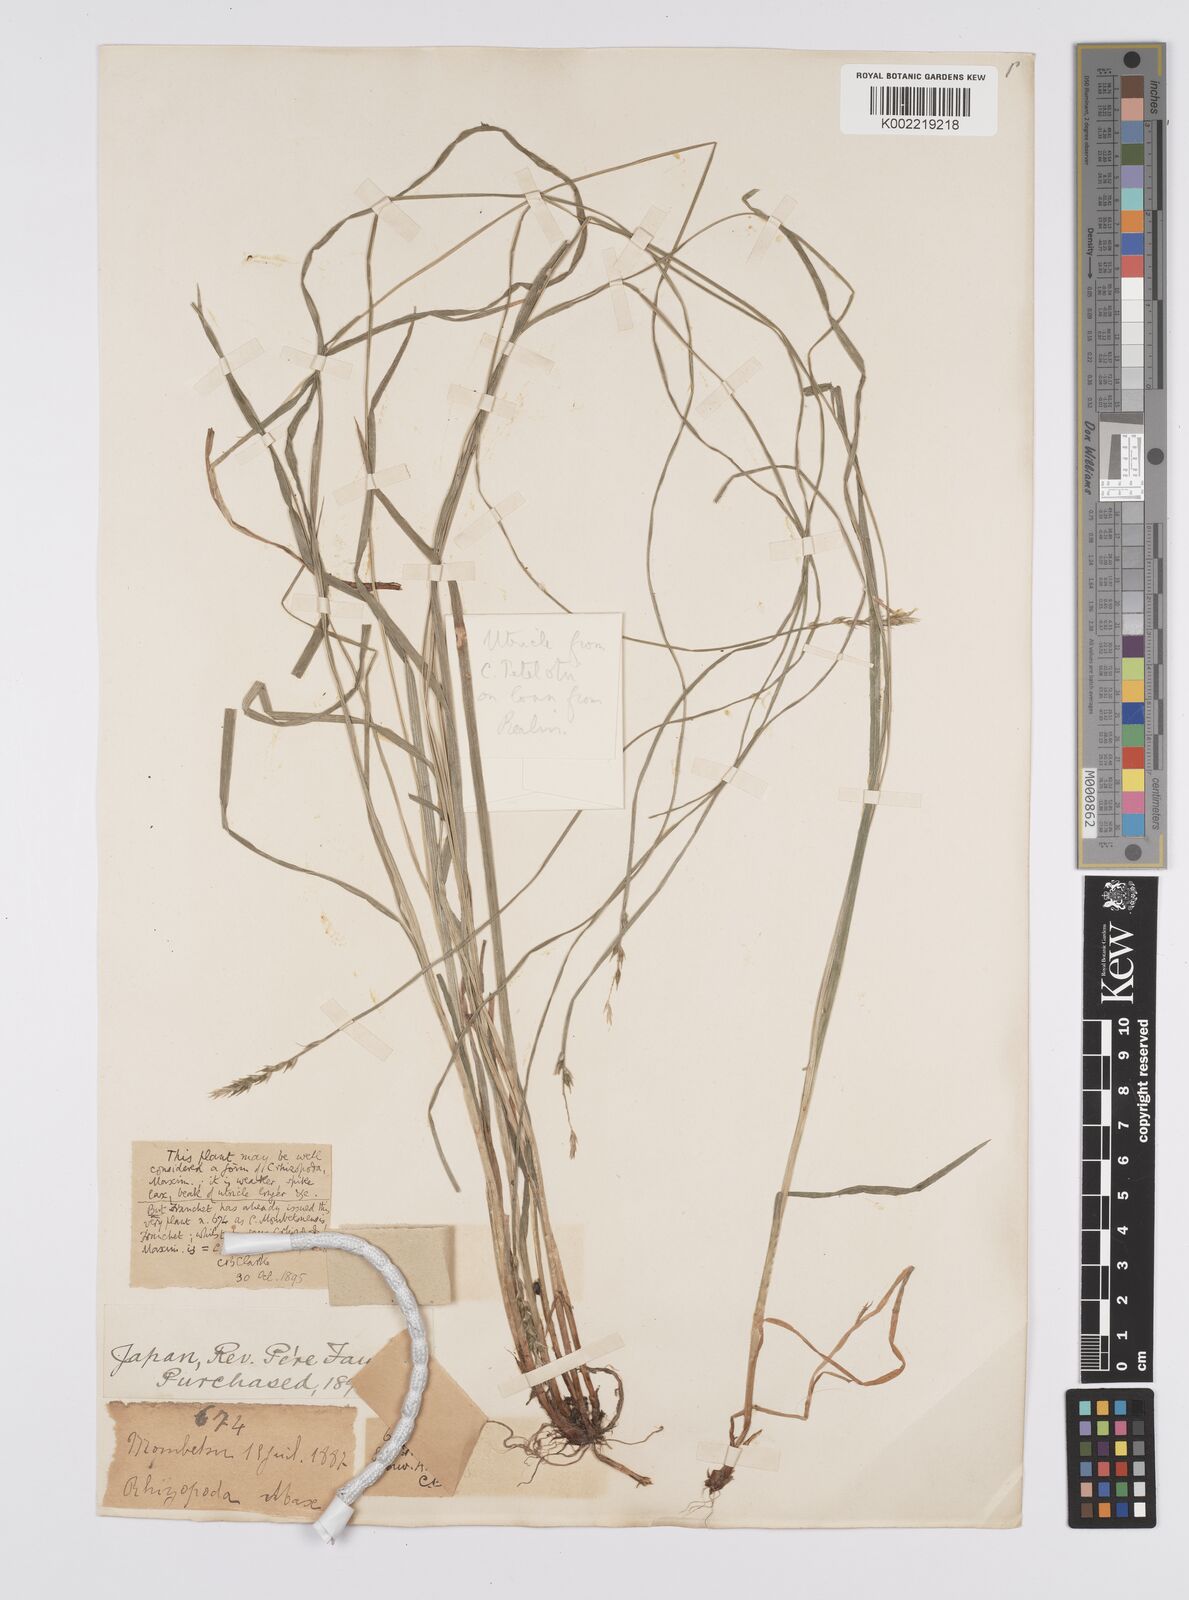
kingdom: Plantae
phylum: Tracheophyta
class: Liliopsida
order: Poales
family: Cyperaceae
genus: Carex
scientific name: Carex rhizopoda
